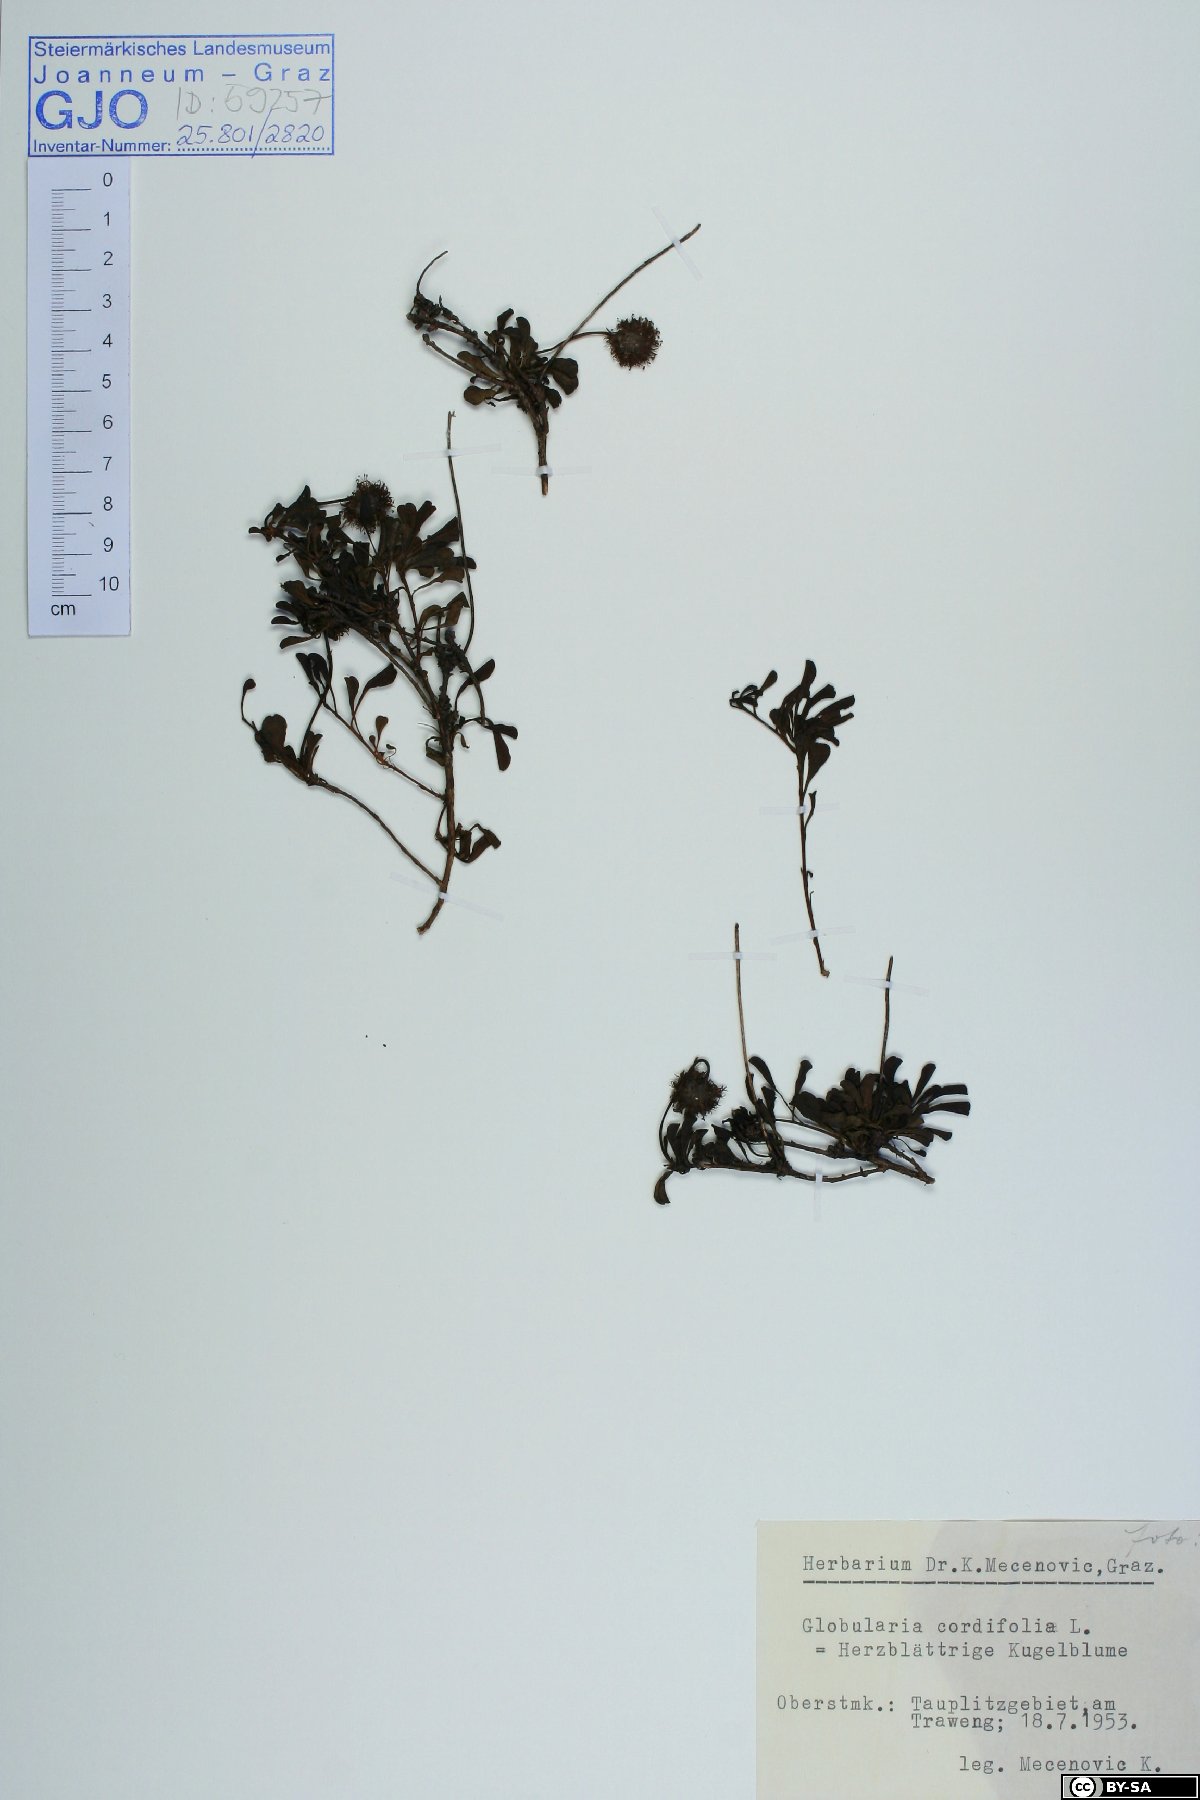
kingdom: Plantae
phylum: Tracheophyta
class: Magnoliopsida
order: Lamiales
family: Plantaginaceae
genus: Globularia
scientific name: Globularia cordifolia
